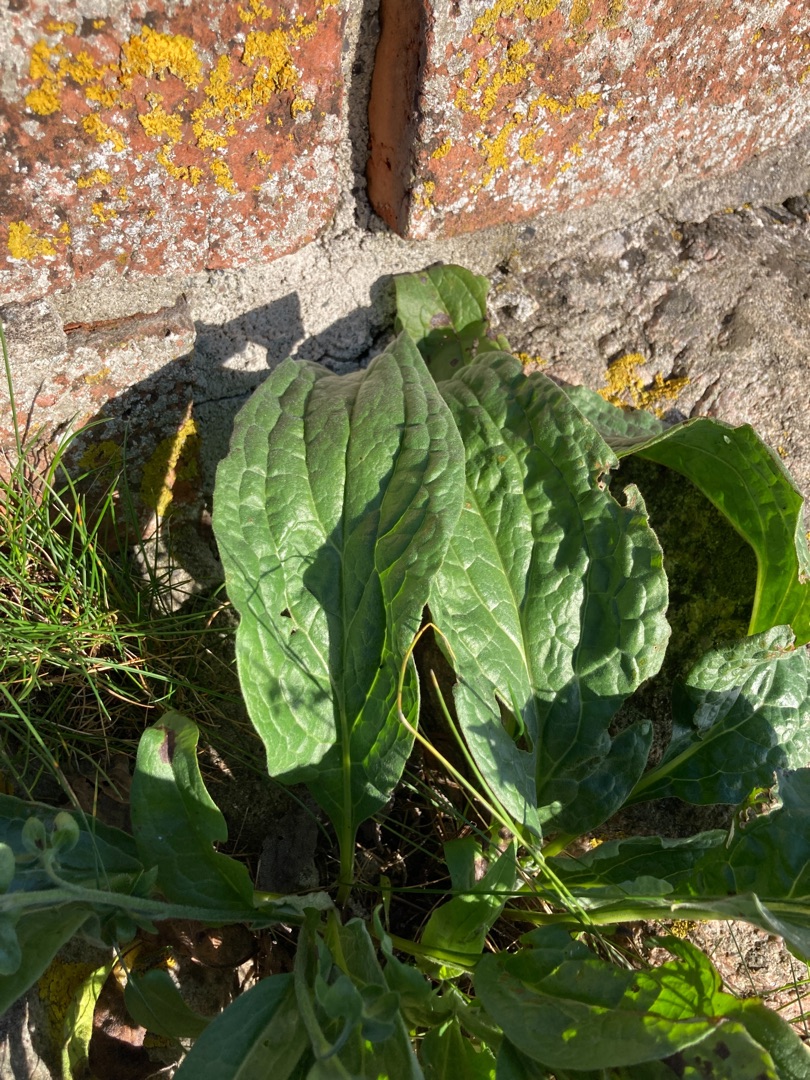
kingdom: Plantae
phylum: Tracheophyta
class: Magnoliopsida
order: Boraginales
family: Boraginaceae
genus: Cynoglossum
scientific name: Cynoglossum officinale
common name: Hundetunge
